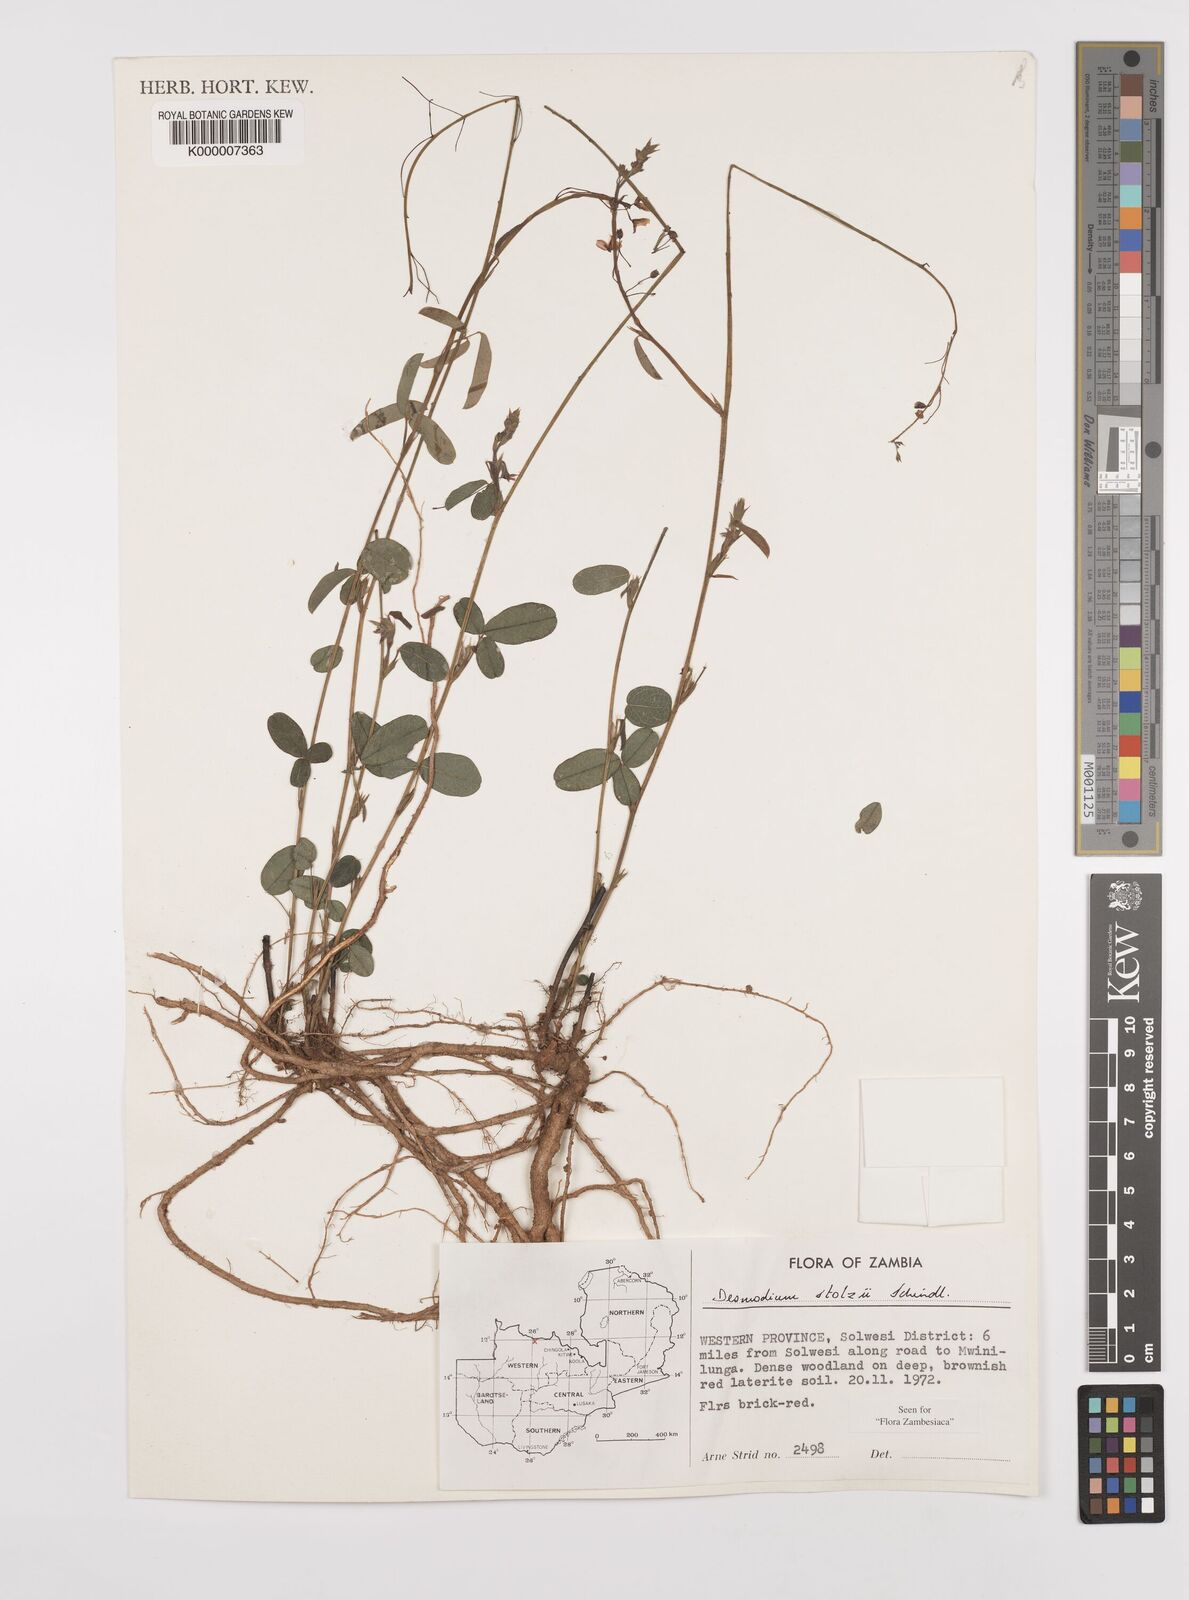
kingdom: Plantae
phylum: Tracheophyta
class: Magnoliopsida
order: Fabales
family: Fabaceae
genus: Grona
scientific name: Grona stolzii
